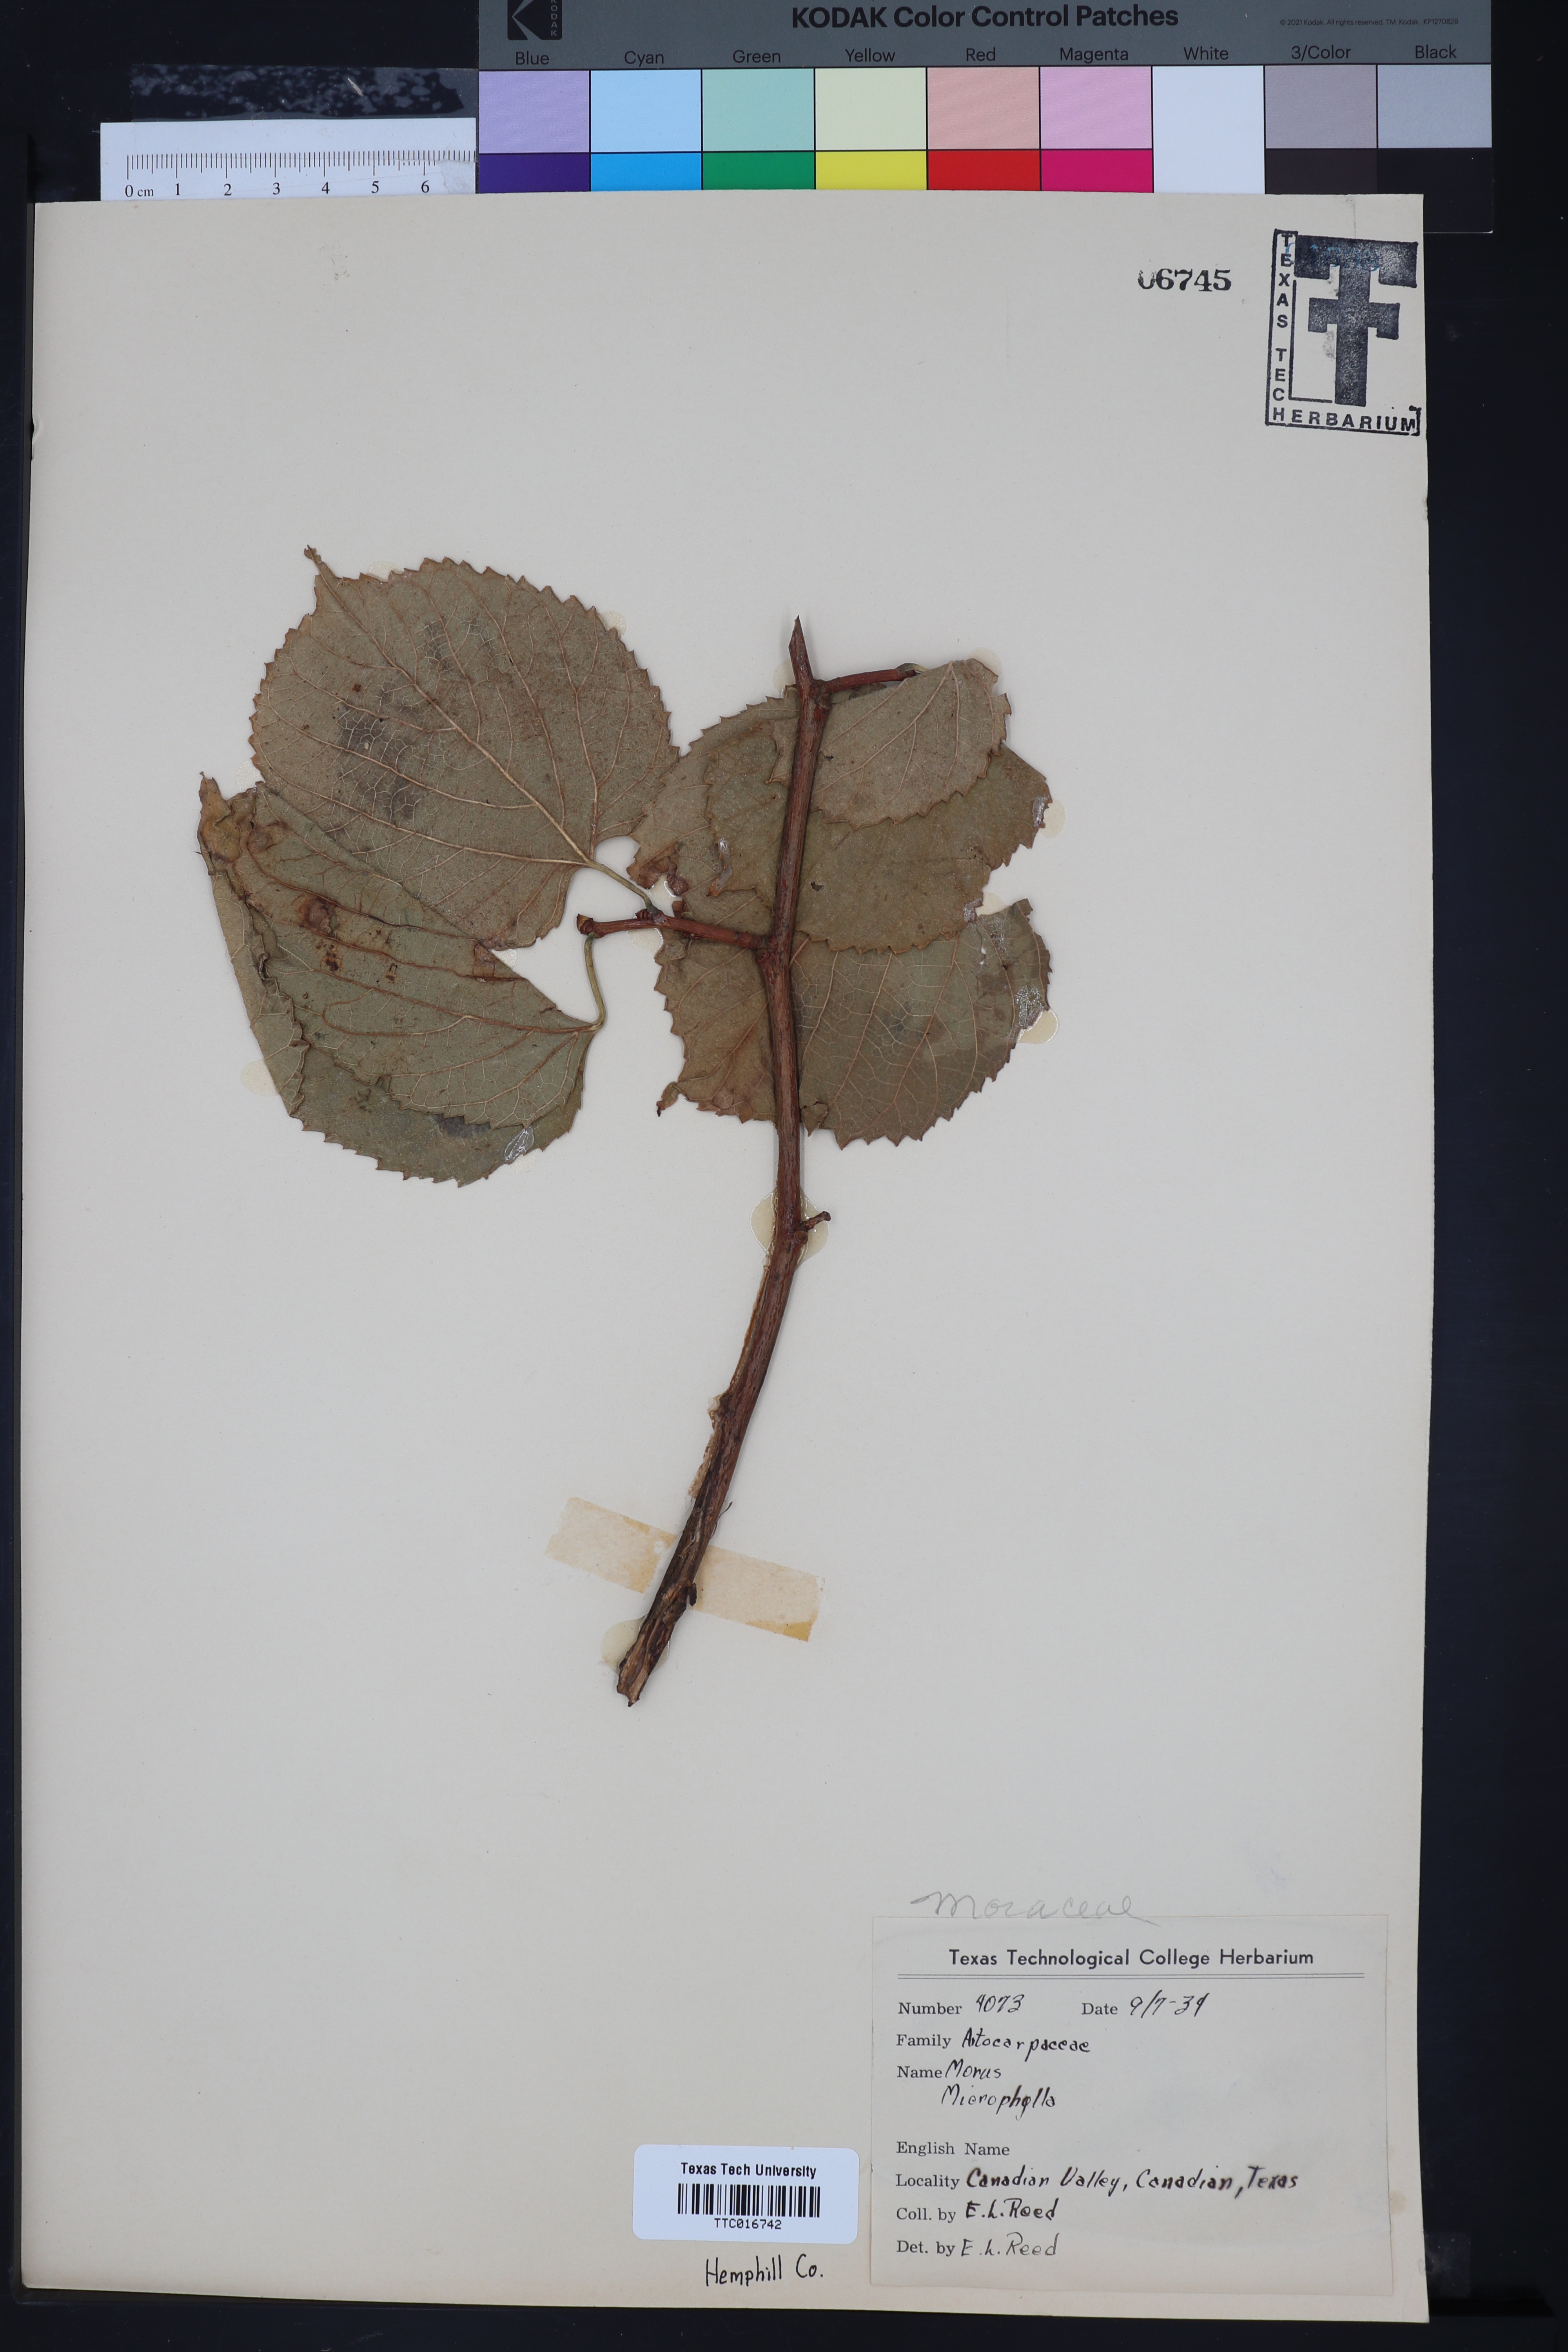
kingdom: Plantae
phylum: Tracheophyta
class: Magnoliopsida
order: Rosales
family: Moraceae
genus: Morus
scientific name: Morus microphylla
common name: Mexican mulberry
